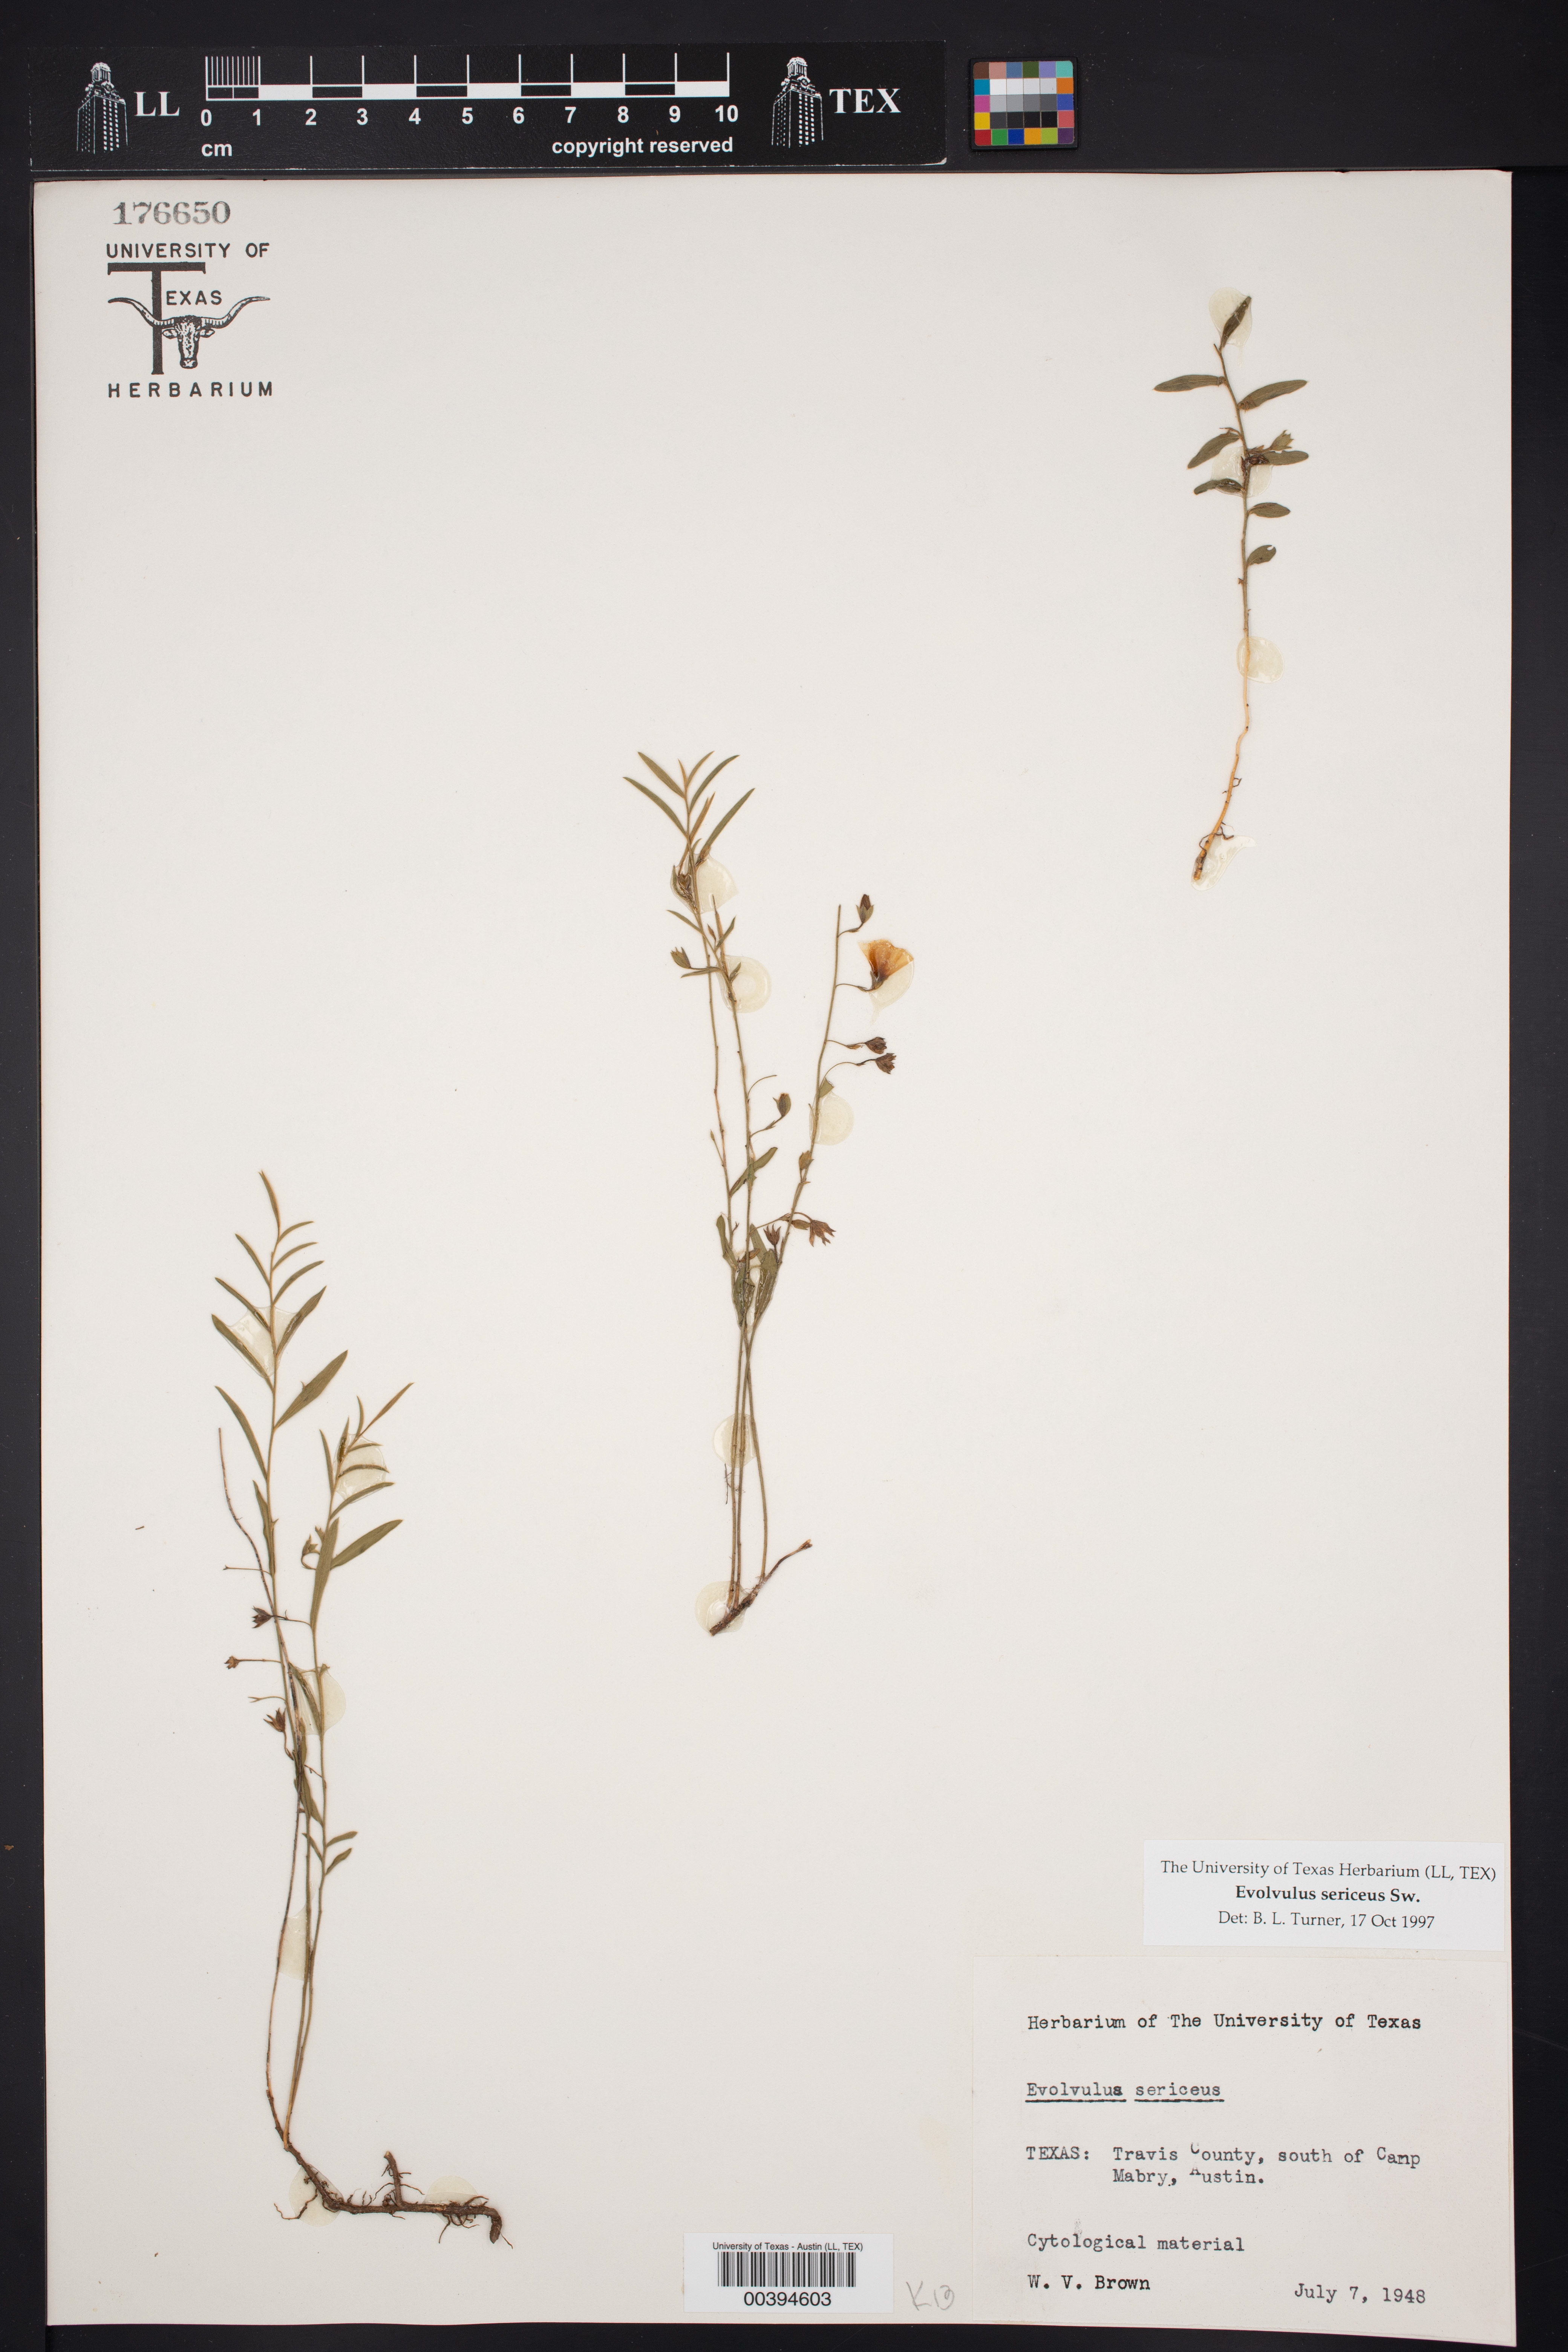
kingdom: Plantae
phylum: Tracheophyta
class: Magnoliopsida
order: Solanales
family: Convolvulaceae
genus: Evolvulus
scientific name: Evolvulus sericeus
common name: Blue dots
